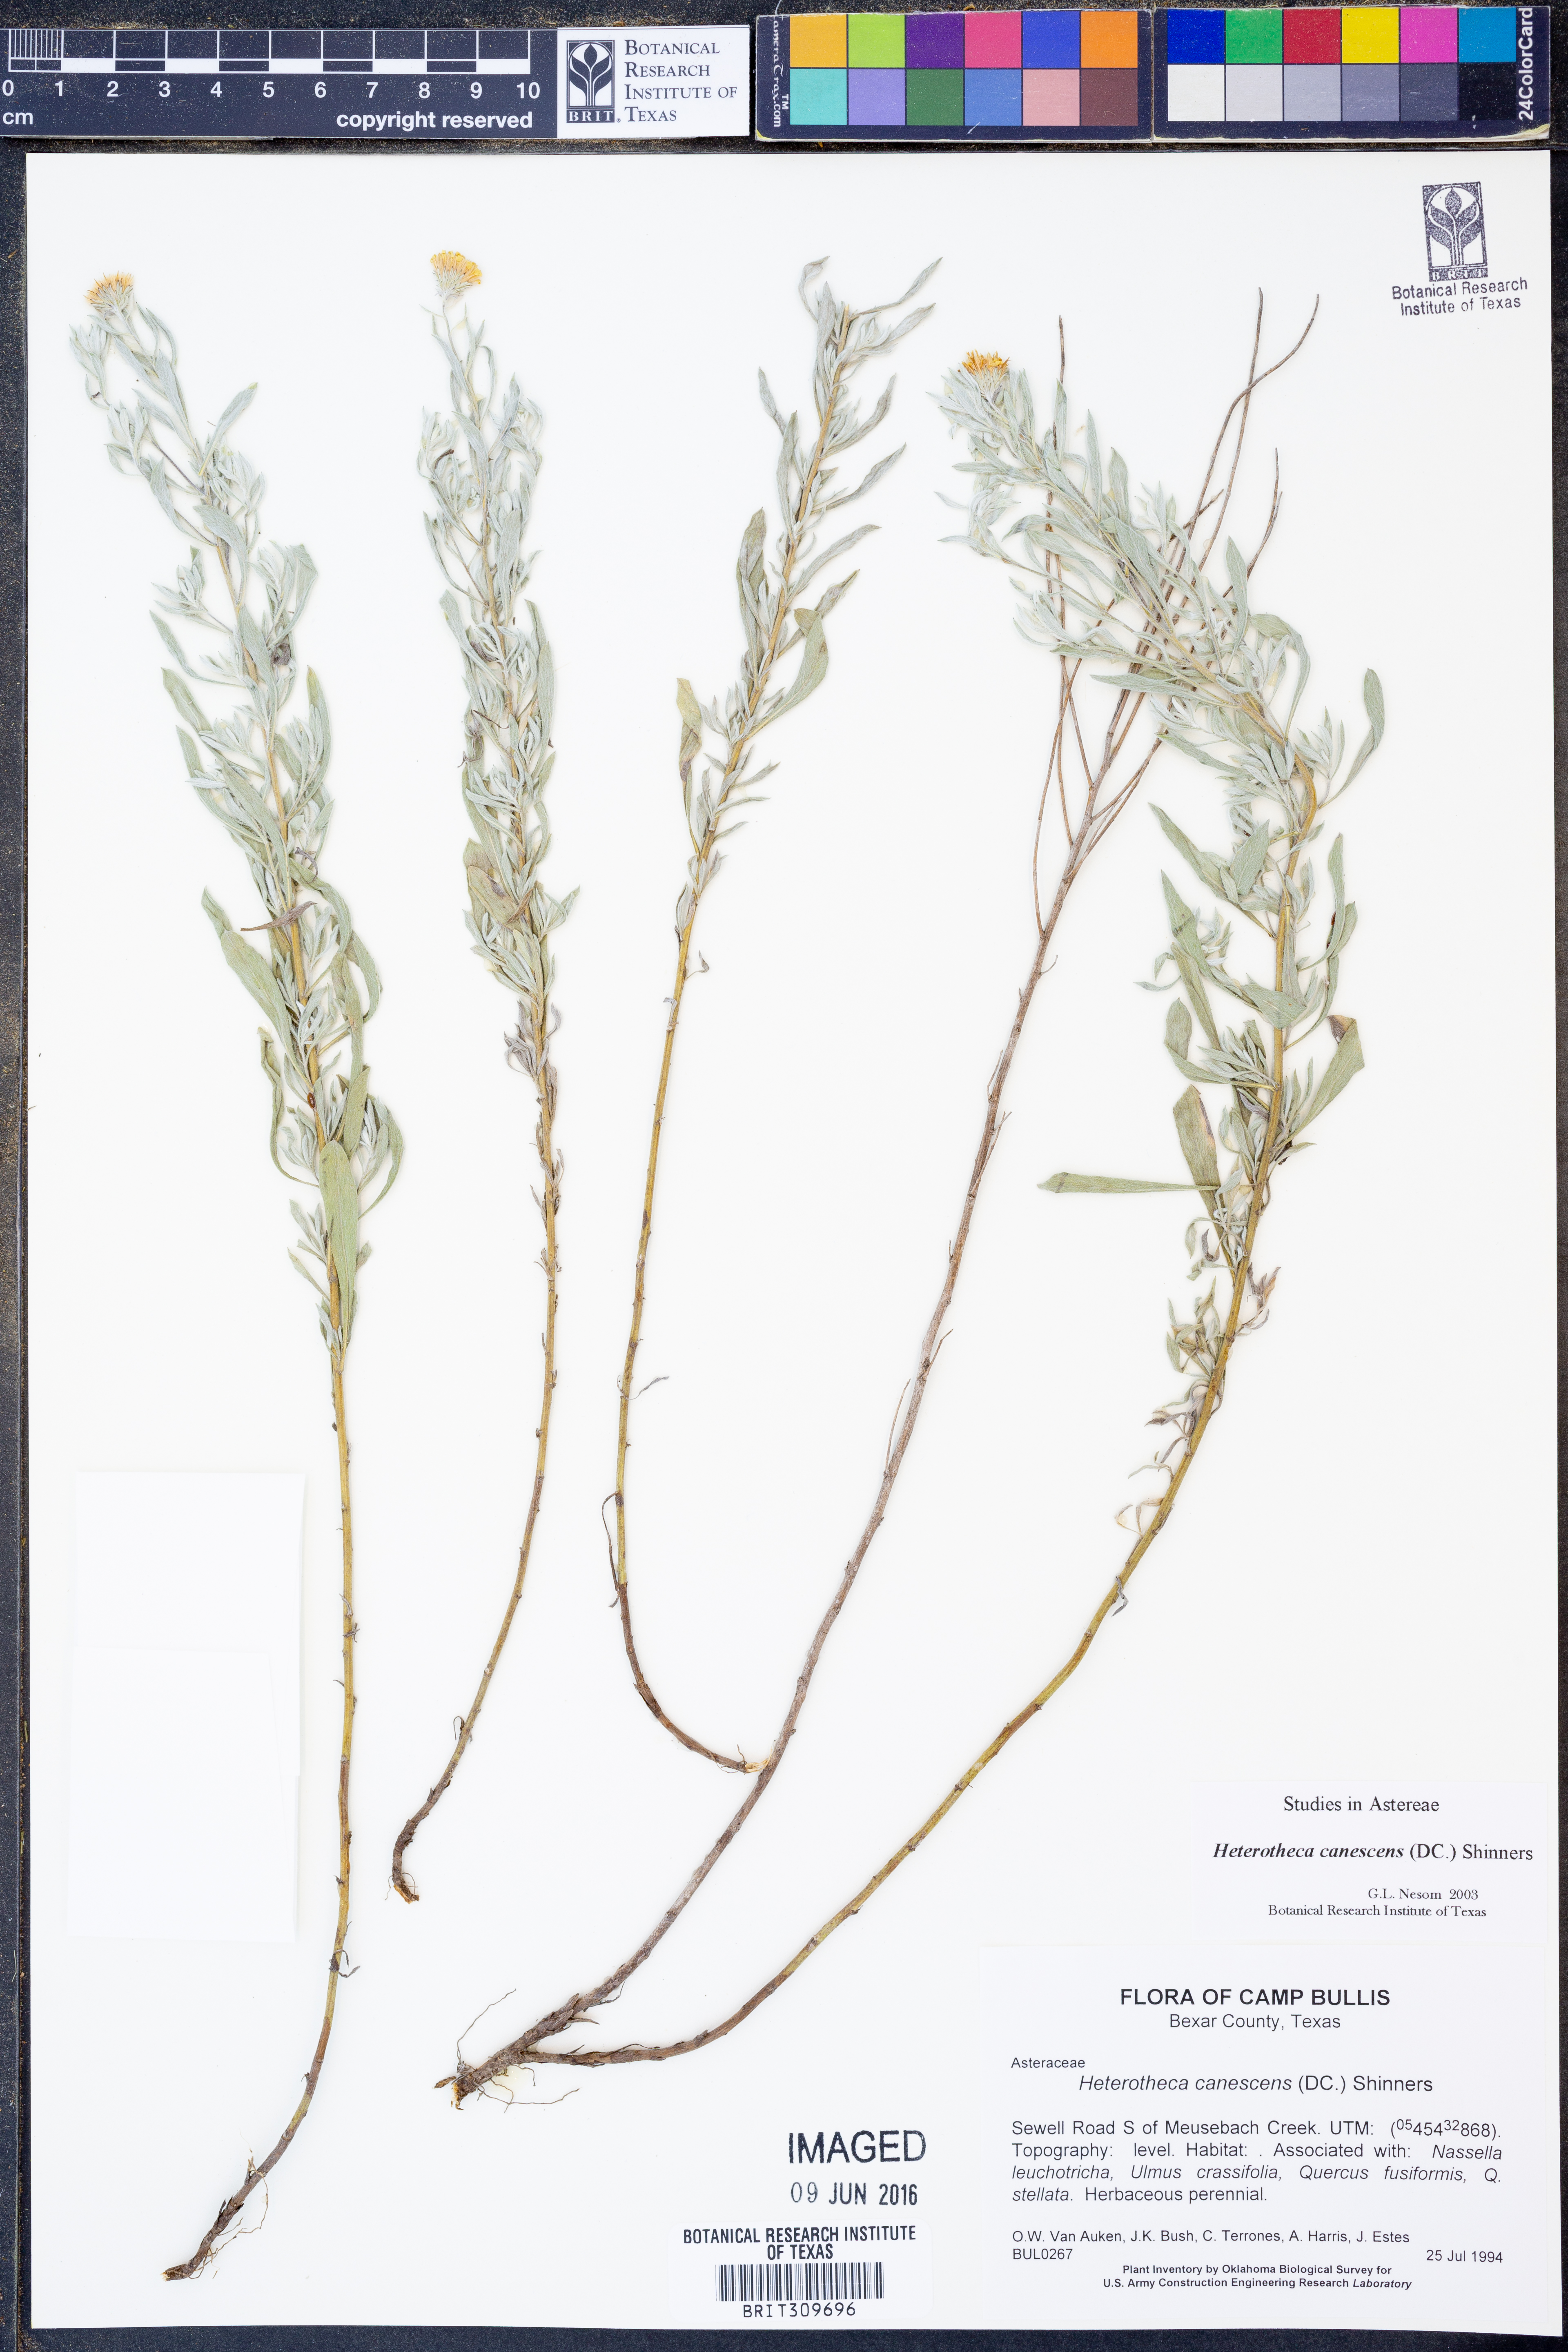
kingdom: Plantae
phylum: Tracheophyta
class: Magnoliopsida
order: Asterales
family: Asteraceae
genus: Heterotheca
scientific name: Heterotheca canescens
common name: Hoary golden-aster
